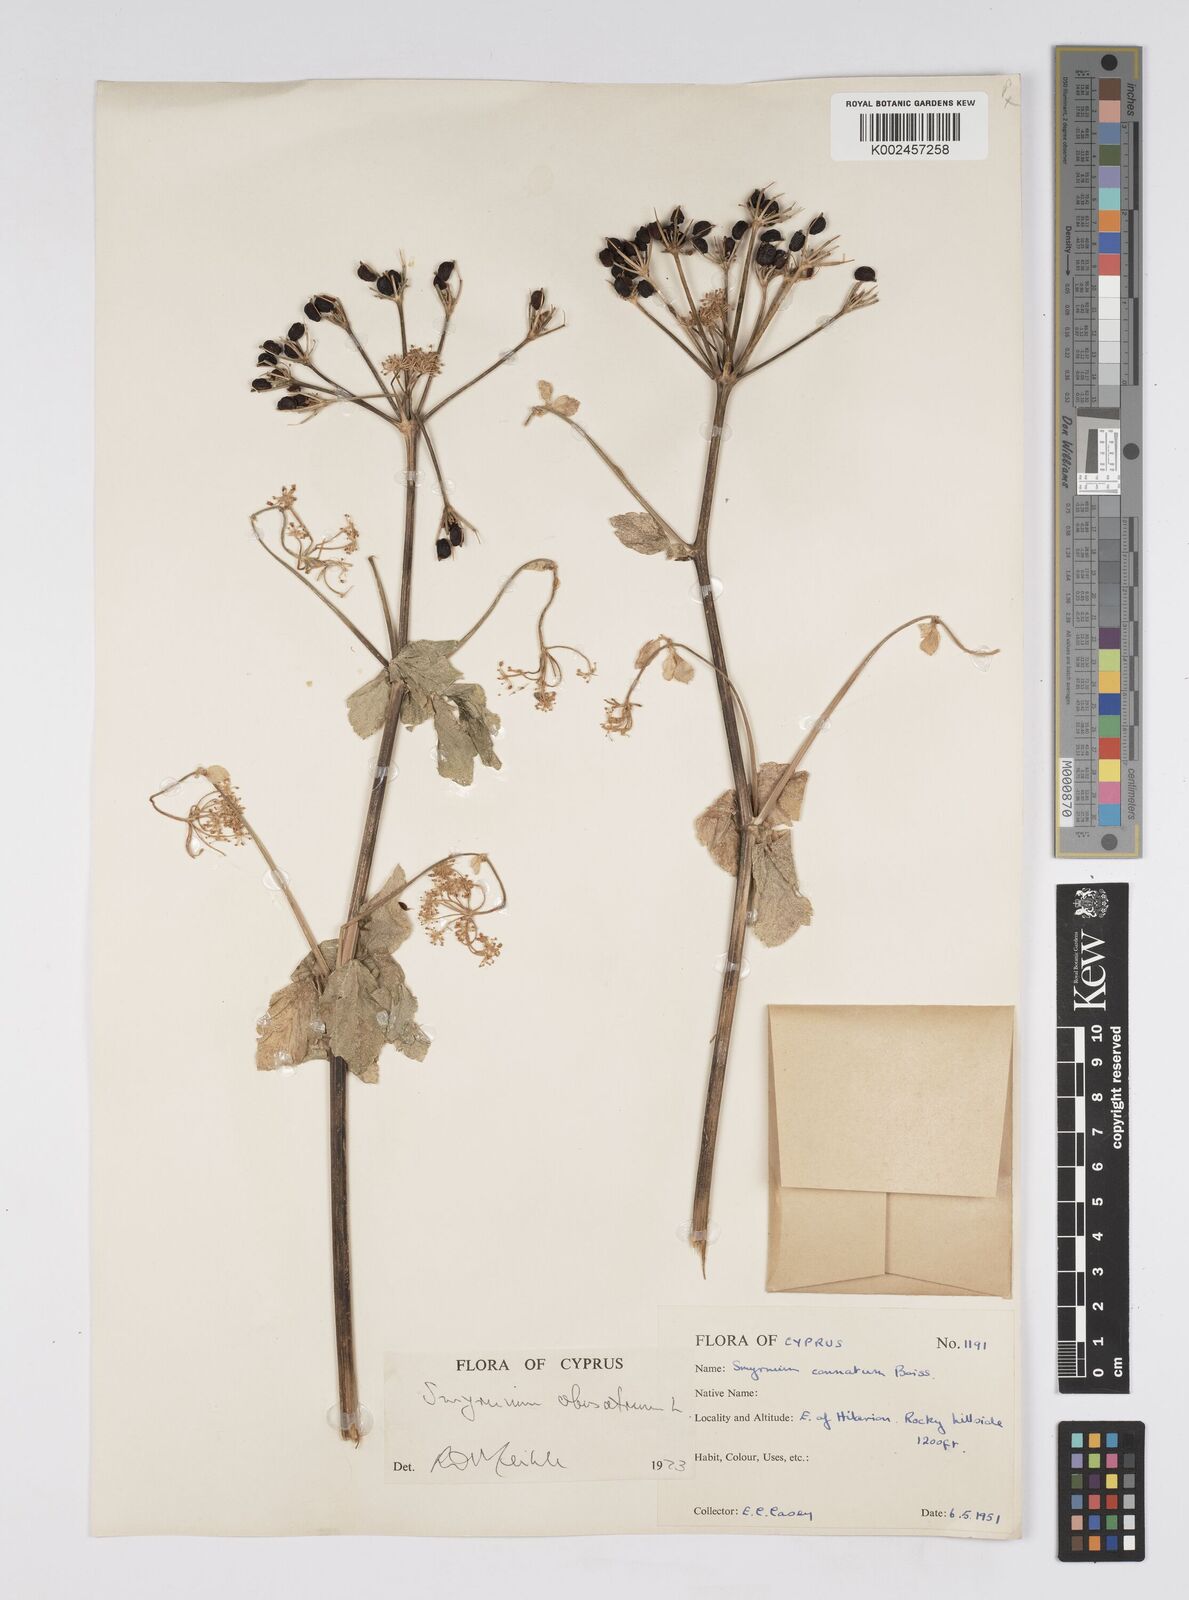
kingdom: Plantae
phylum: Tracheophyta
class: Magnoliopsida
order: Apiales
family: Apiaceae
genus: Smyrnium
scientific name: Smyrnium olusatrum
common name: Alexanders
